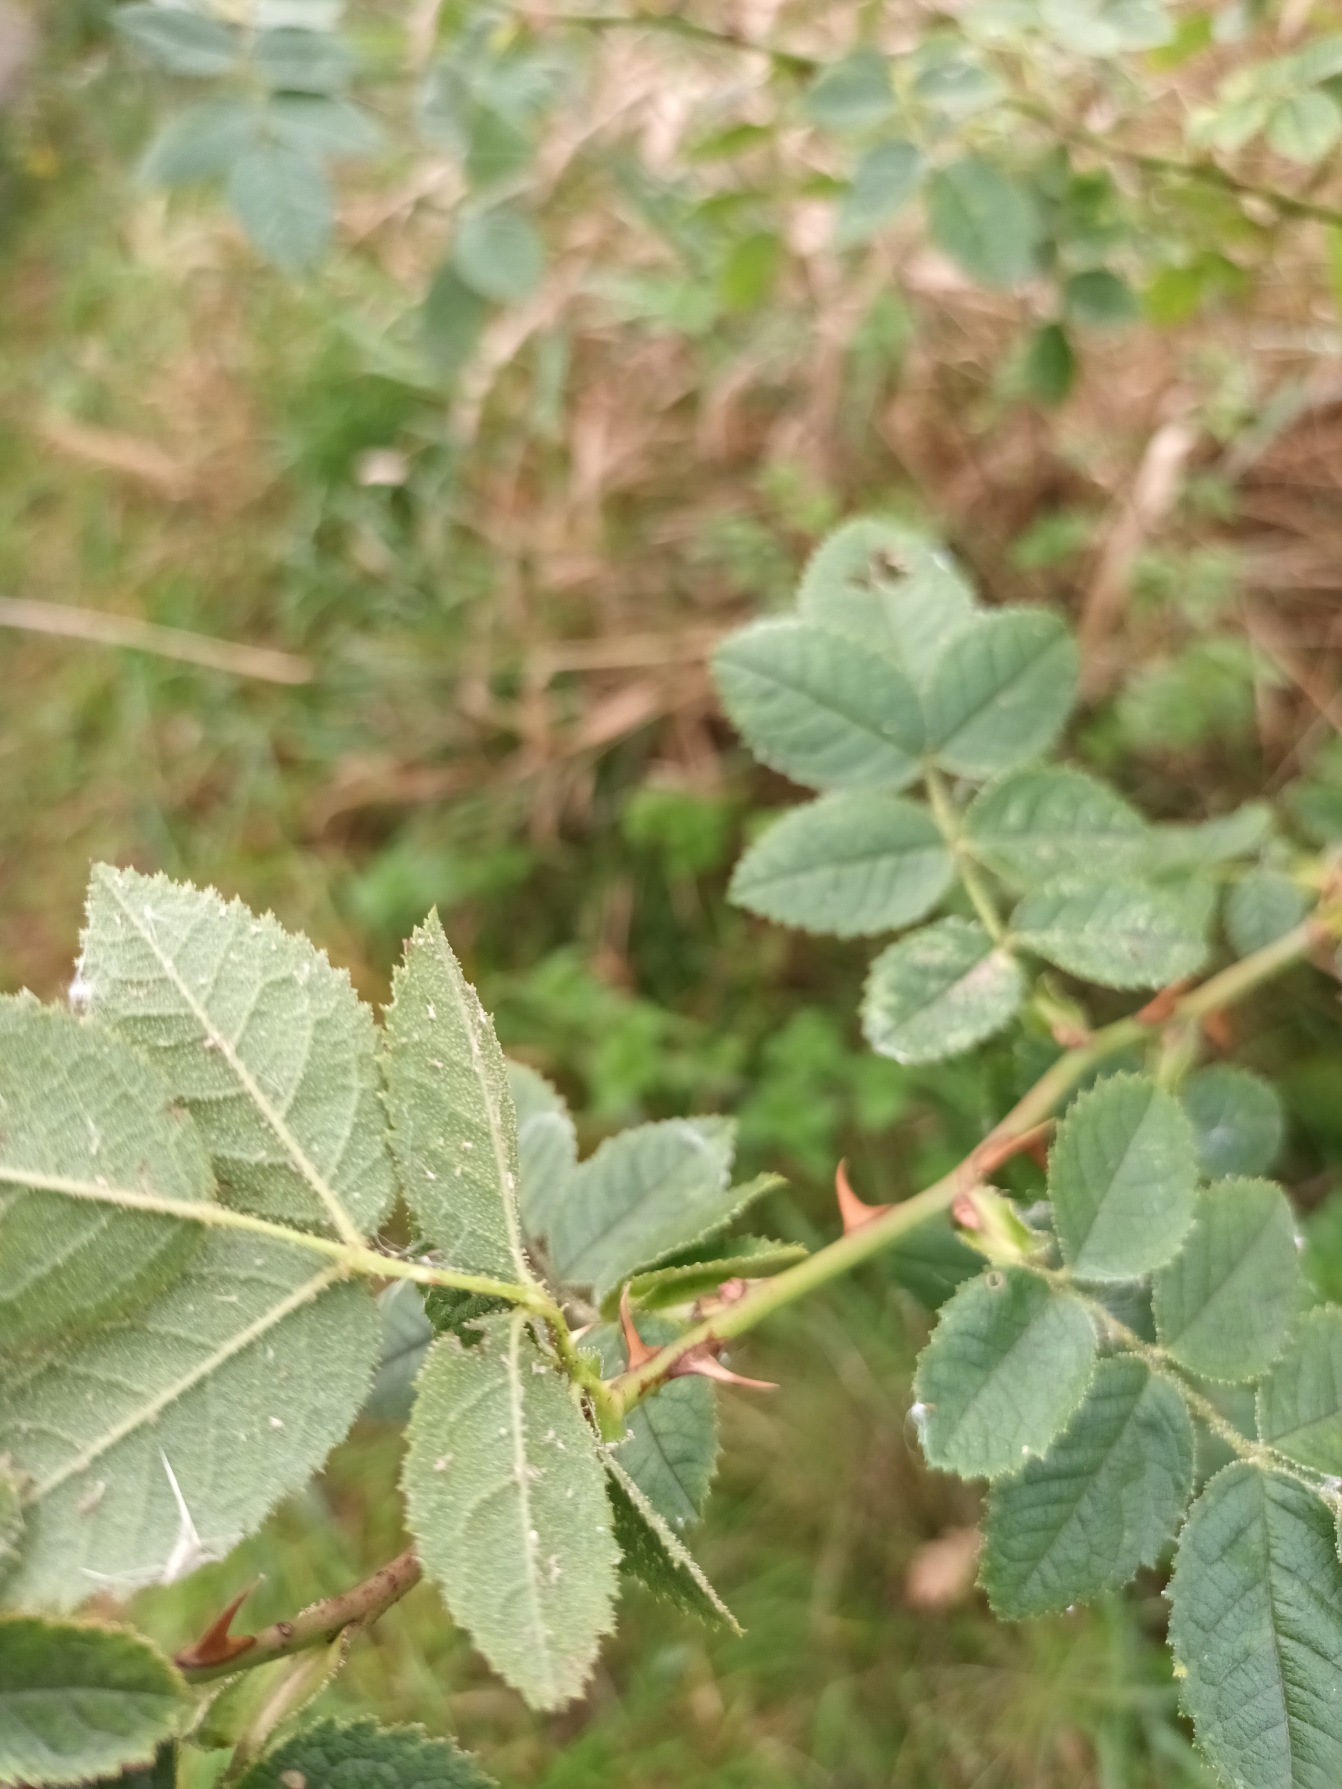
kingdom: Plantae
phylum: Tracheophyta
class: Magnoliopsida
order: Rosales
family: Rosaceae
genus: Rosa
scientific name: Rosa rubiginosa
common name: Æble-rose
